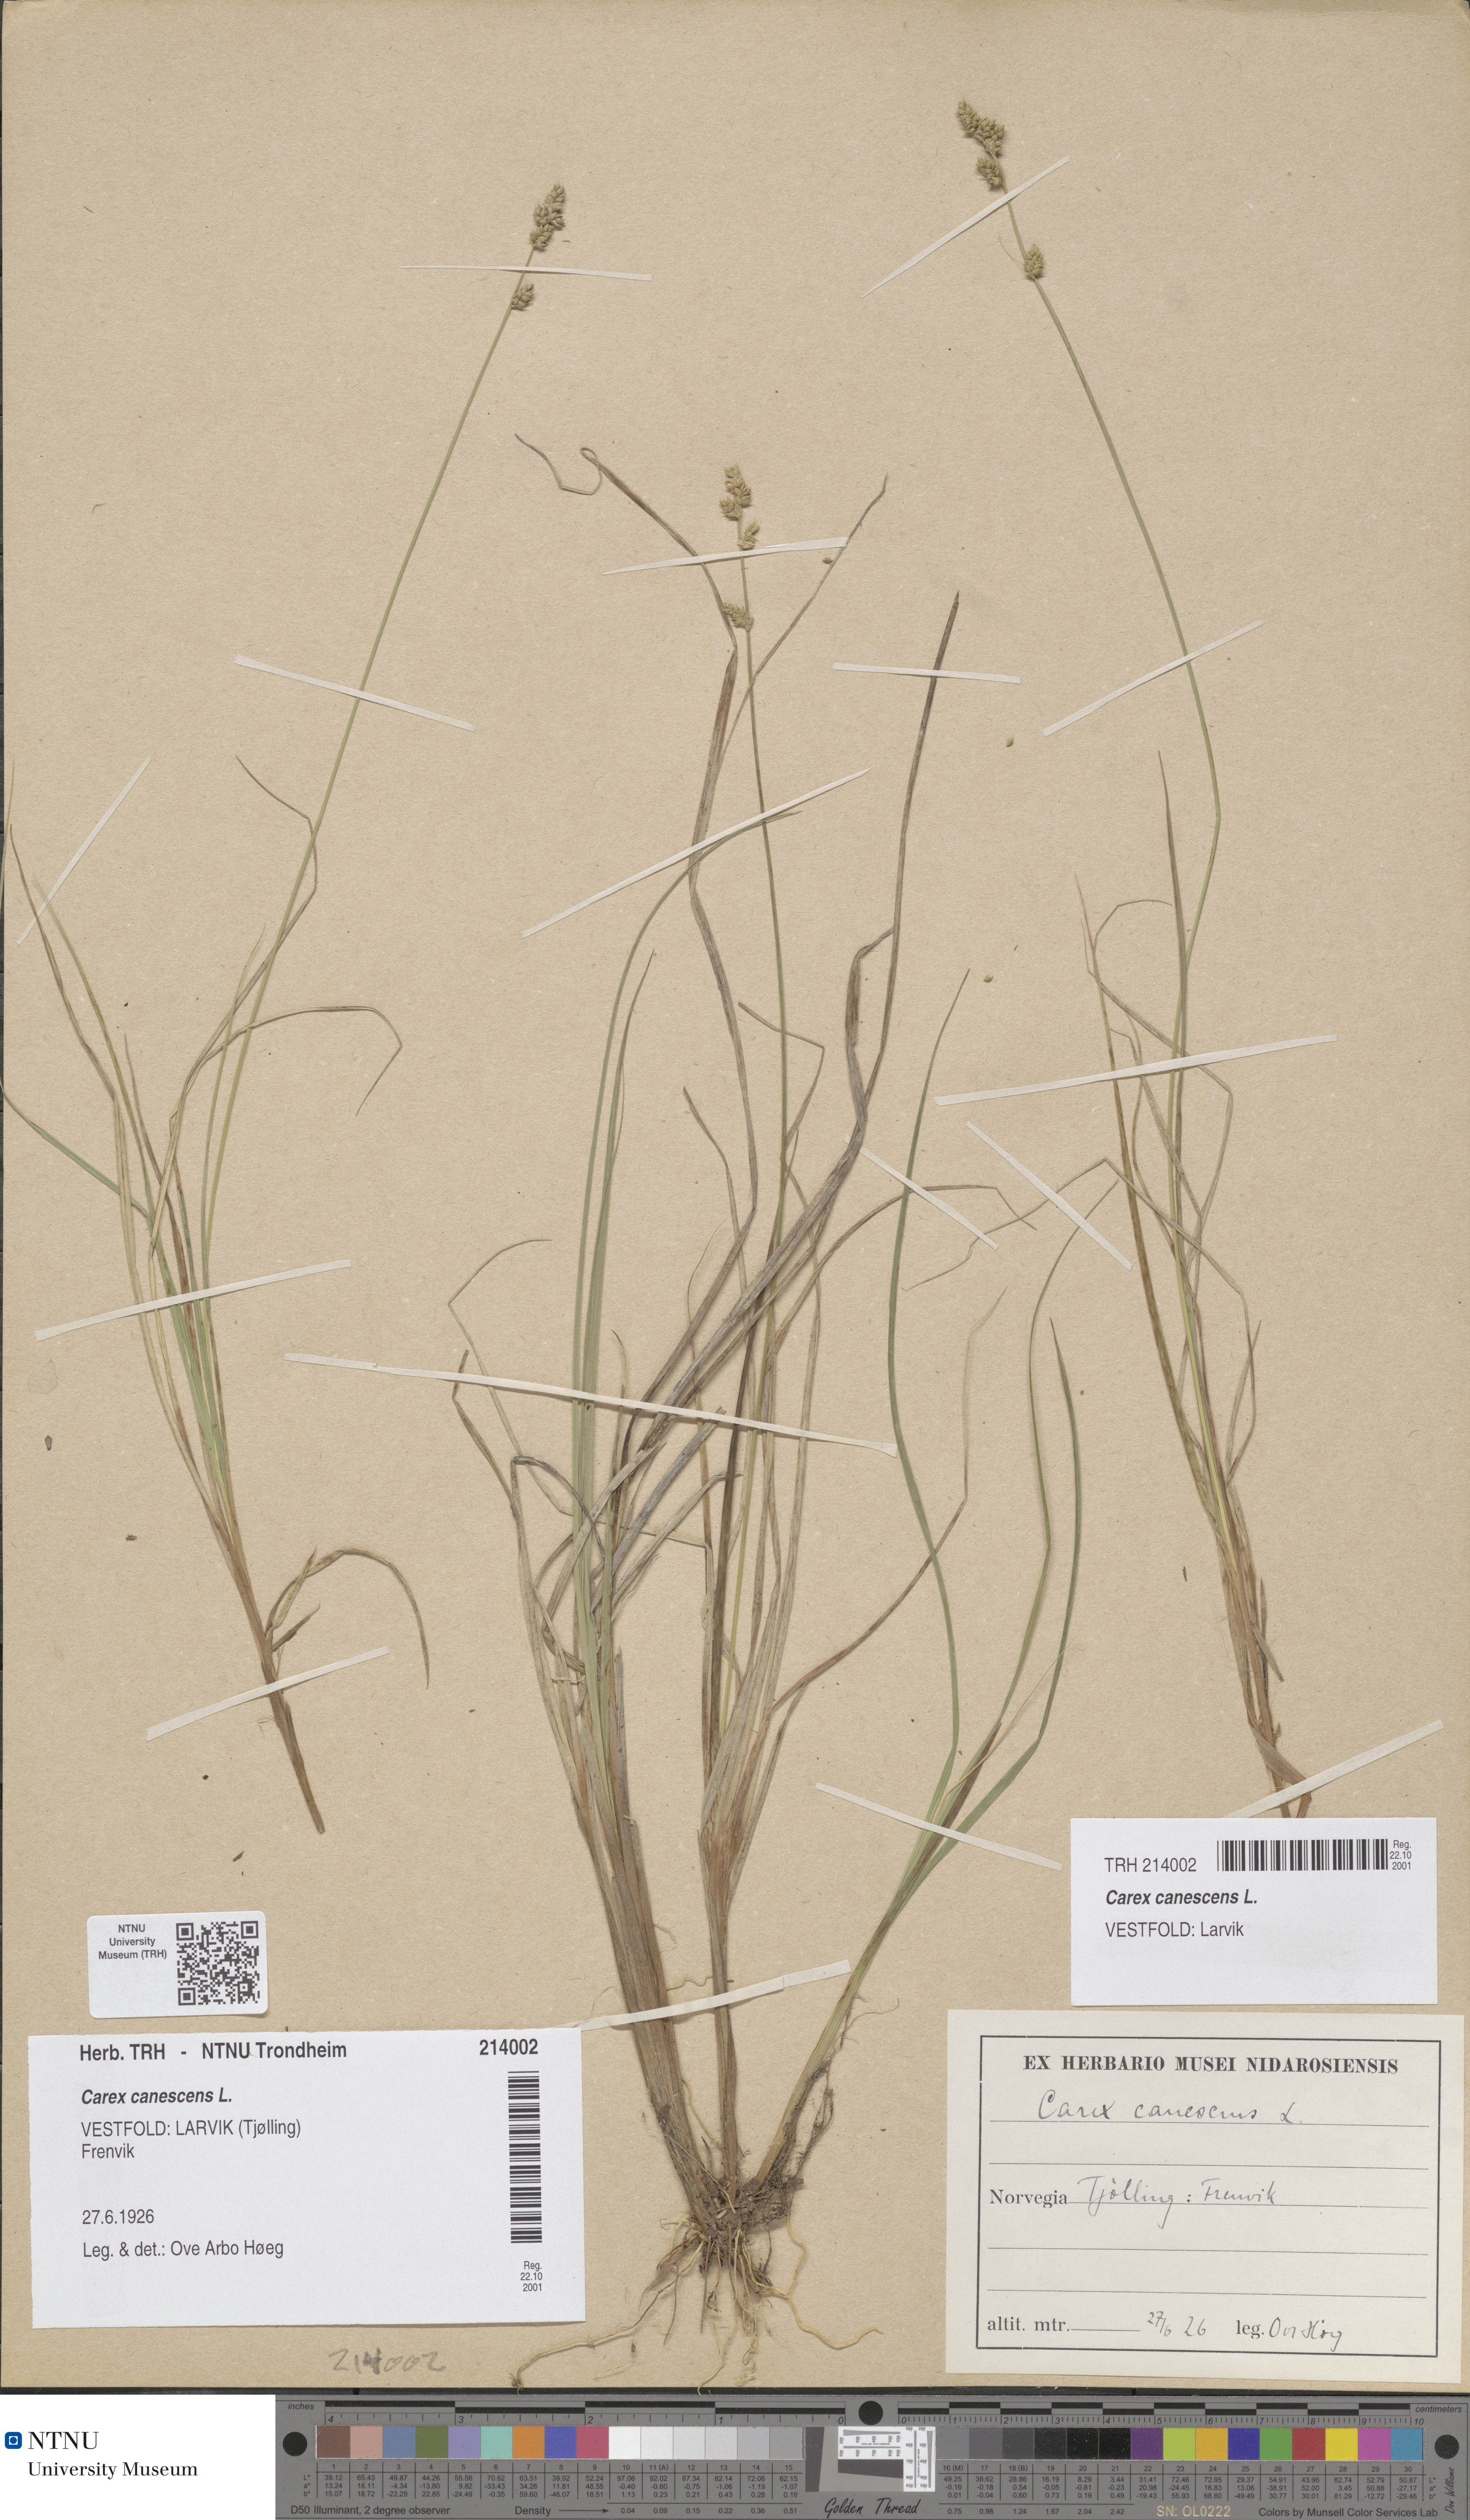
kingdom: Plantae
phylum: Tracheophyta
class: Liliopsida
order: Poales
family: Cyperaceae
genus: Carex
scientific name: Carex canescens
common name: White sedge
